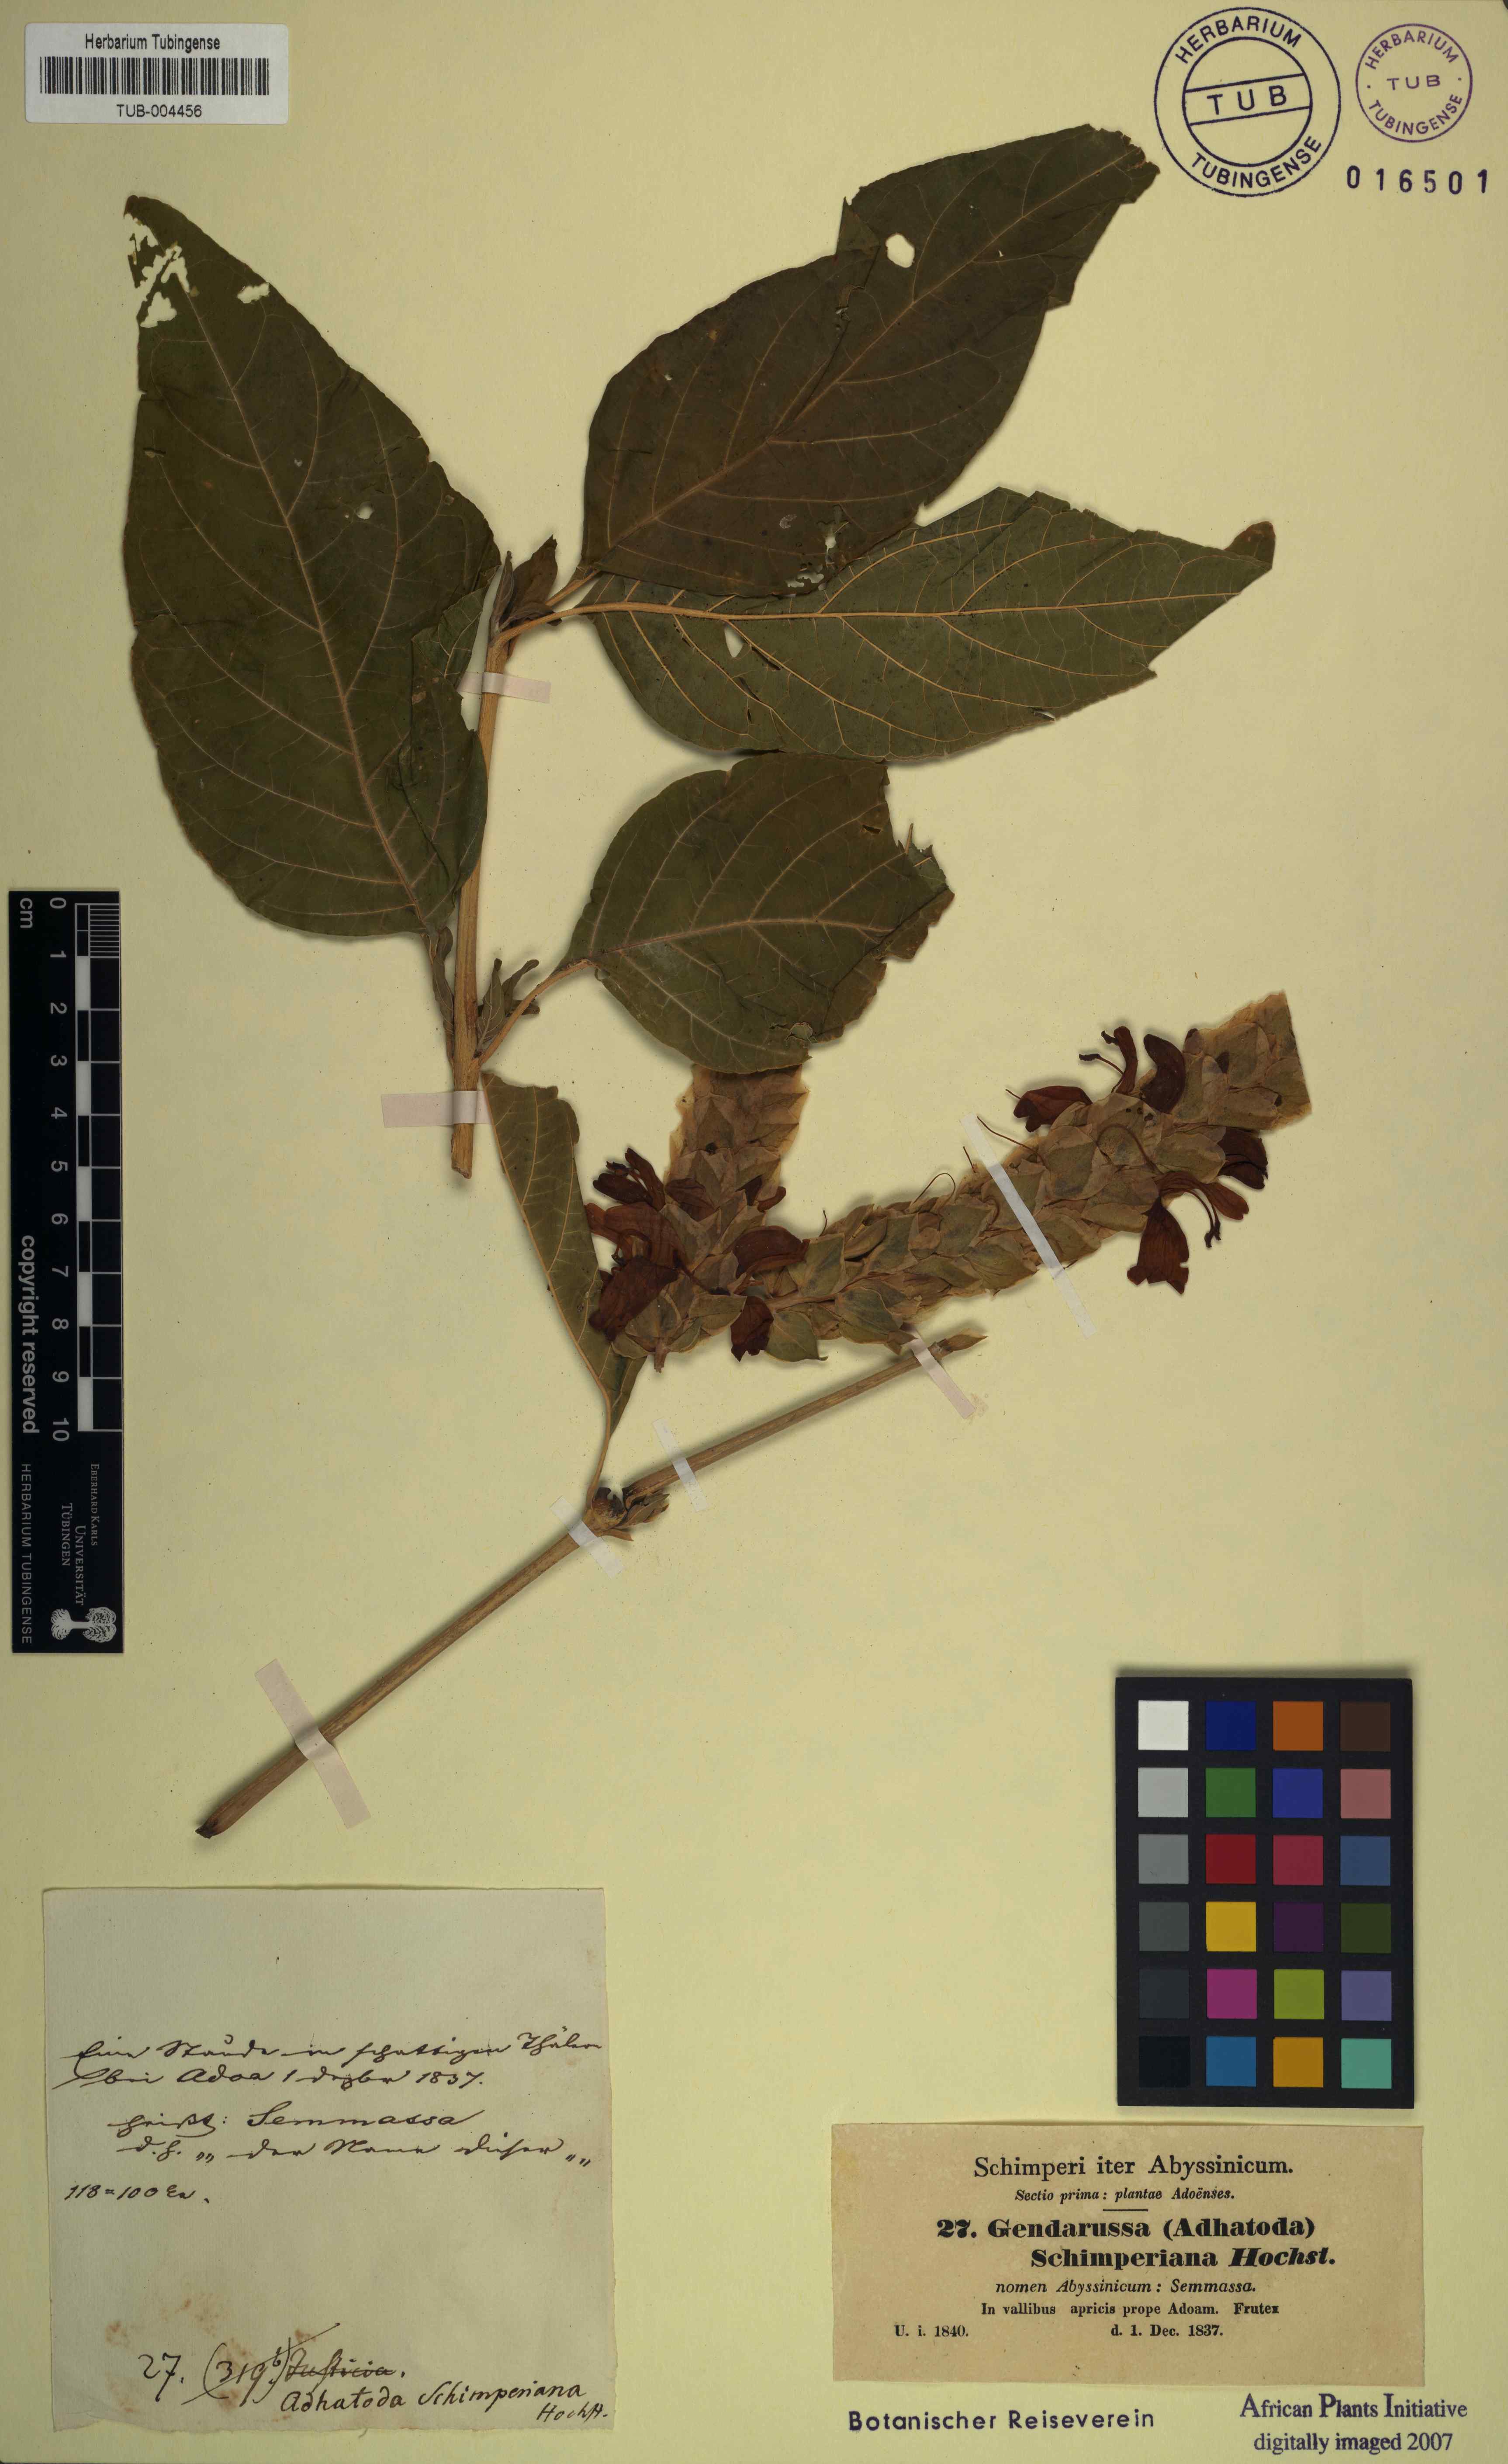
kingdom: Plantae
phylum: Tracheophyta
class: Magnoliopsida
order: Lamiales
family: Acanthaceae
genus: Justicia
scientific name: Justicia schimperiana
